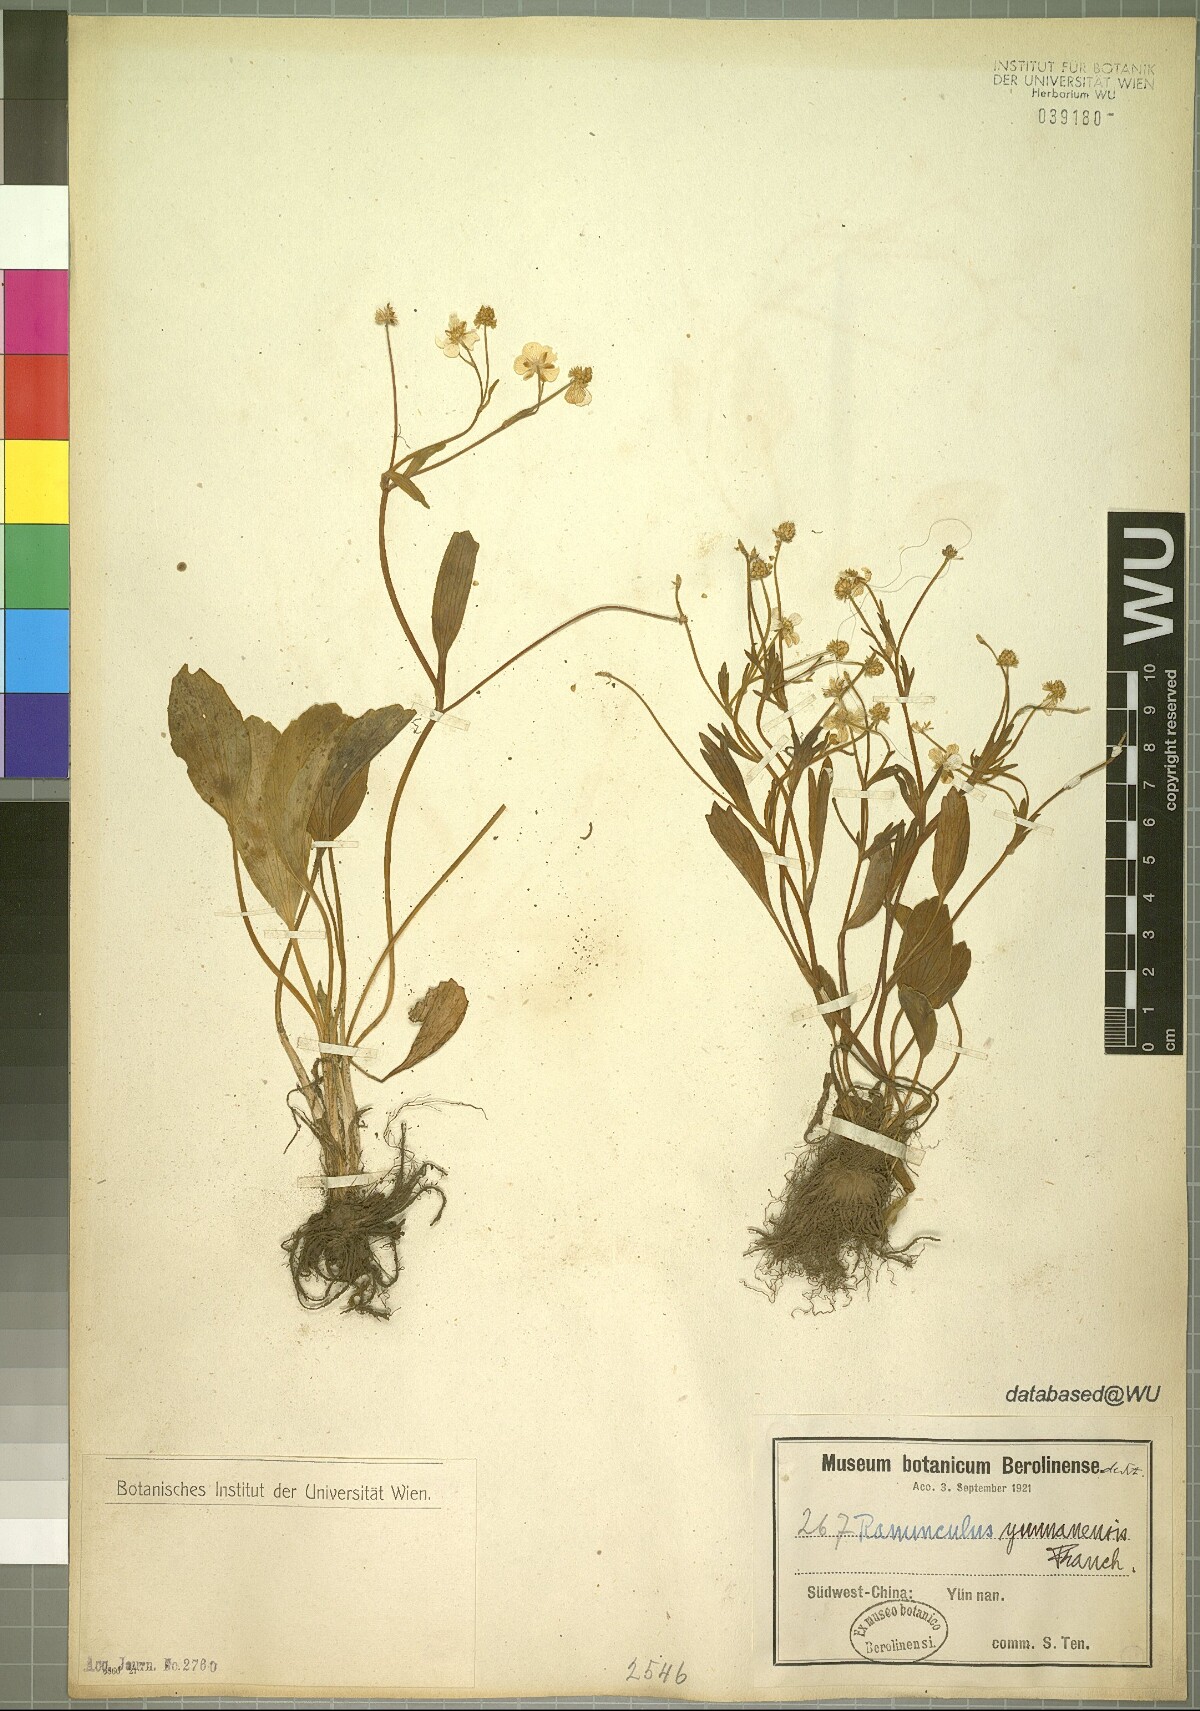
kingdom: Plantae
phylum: Tracheophyta
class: Magnoliopsida
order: Ranunculales
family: Ranunculaceae
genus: Ranunculus
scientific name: Ranunculus yunnanensis
